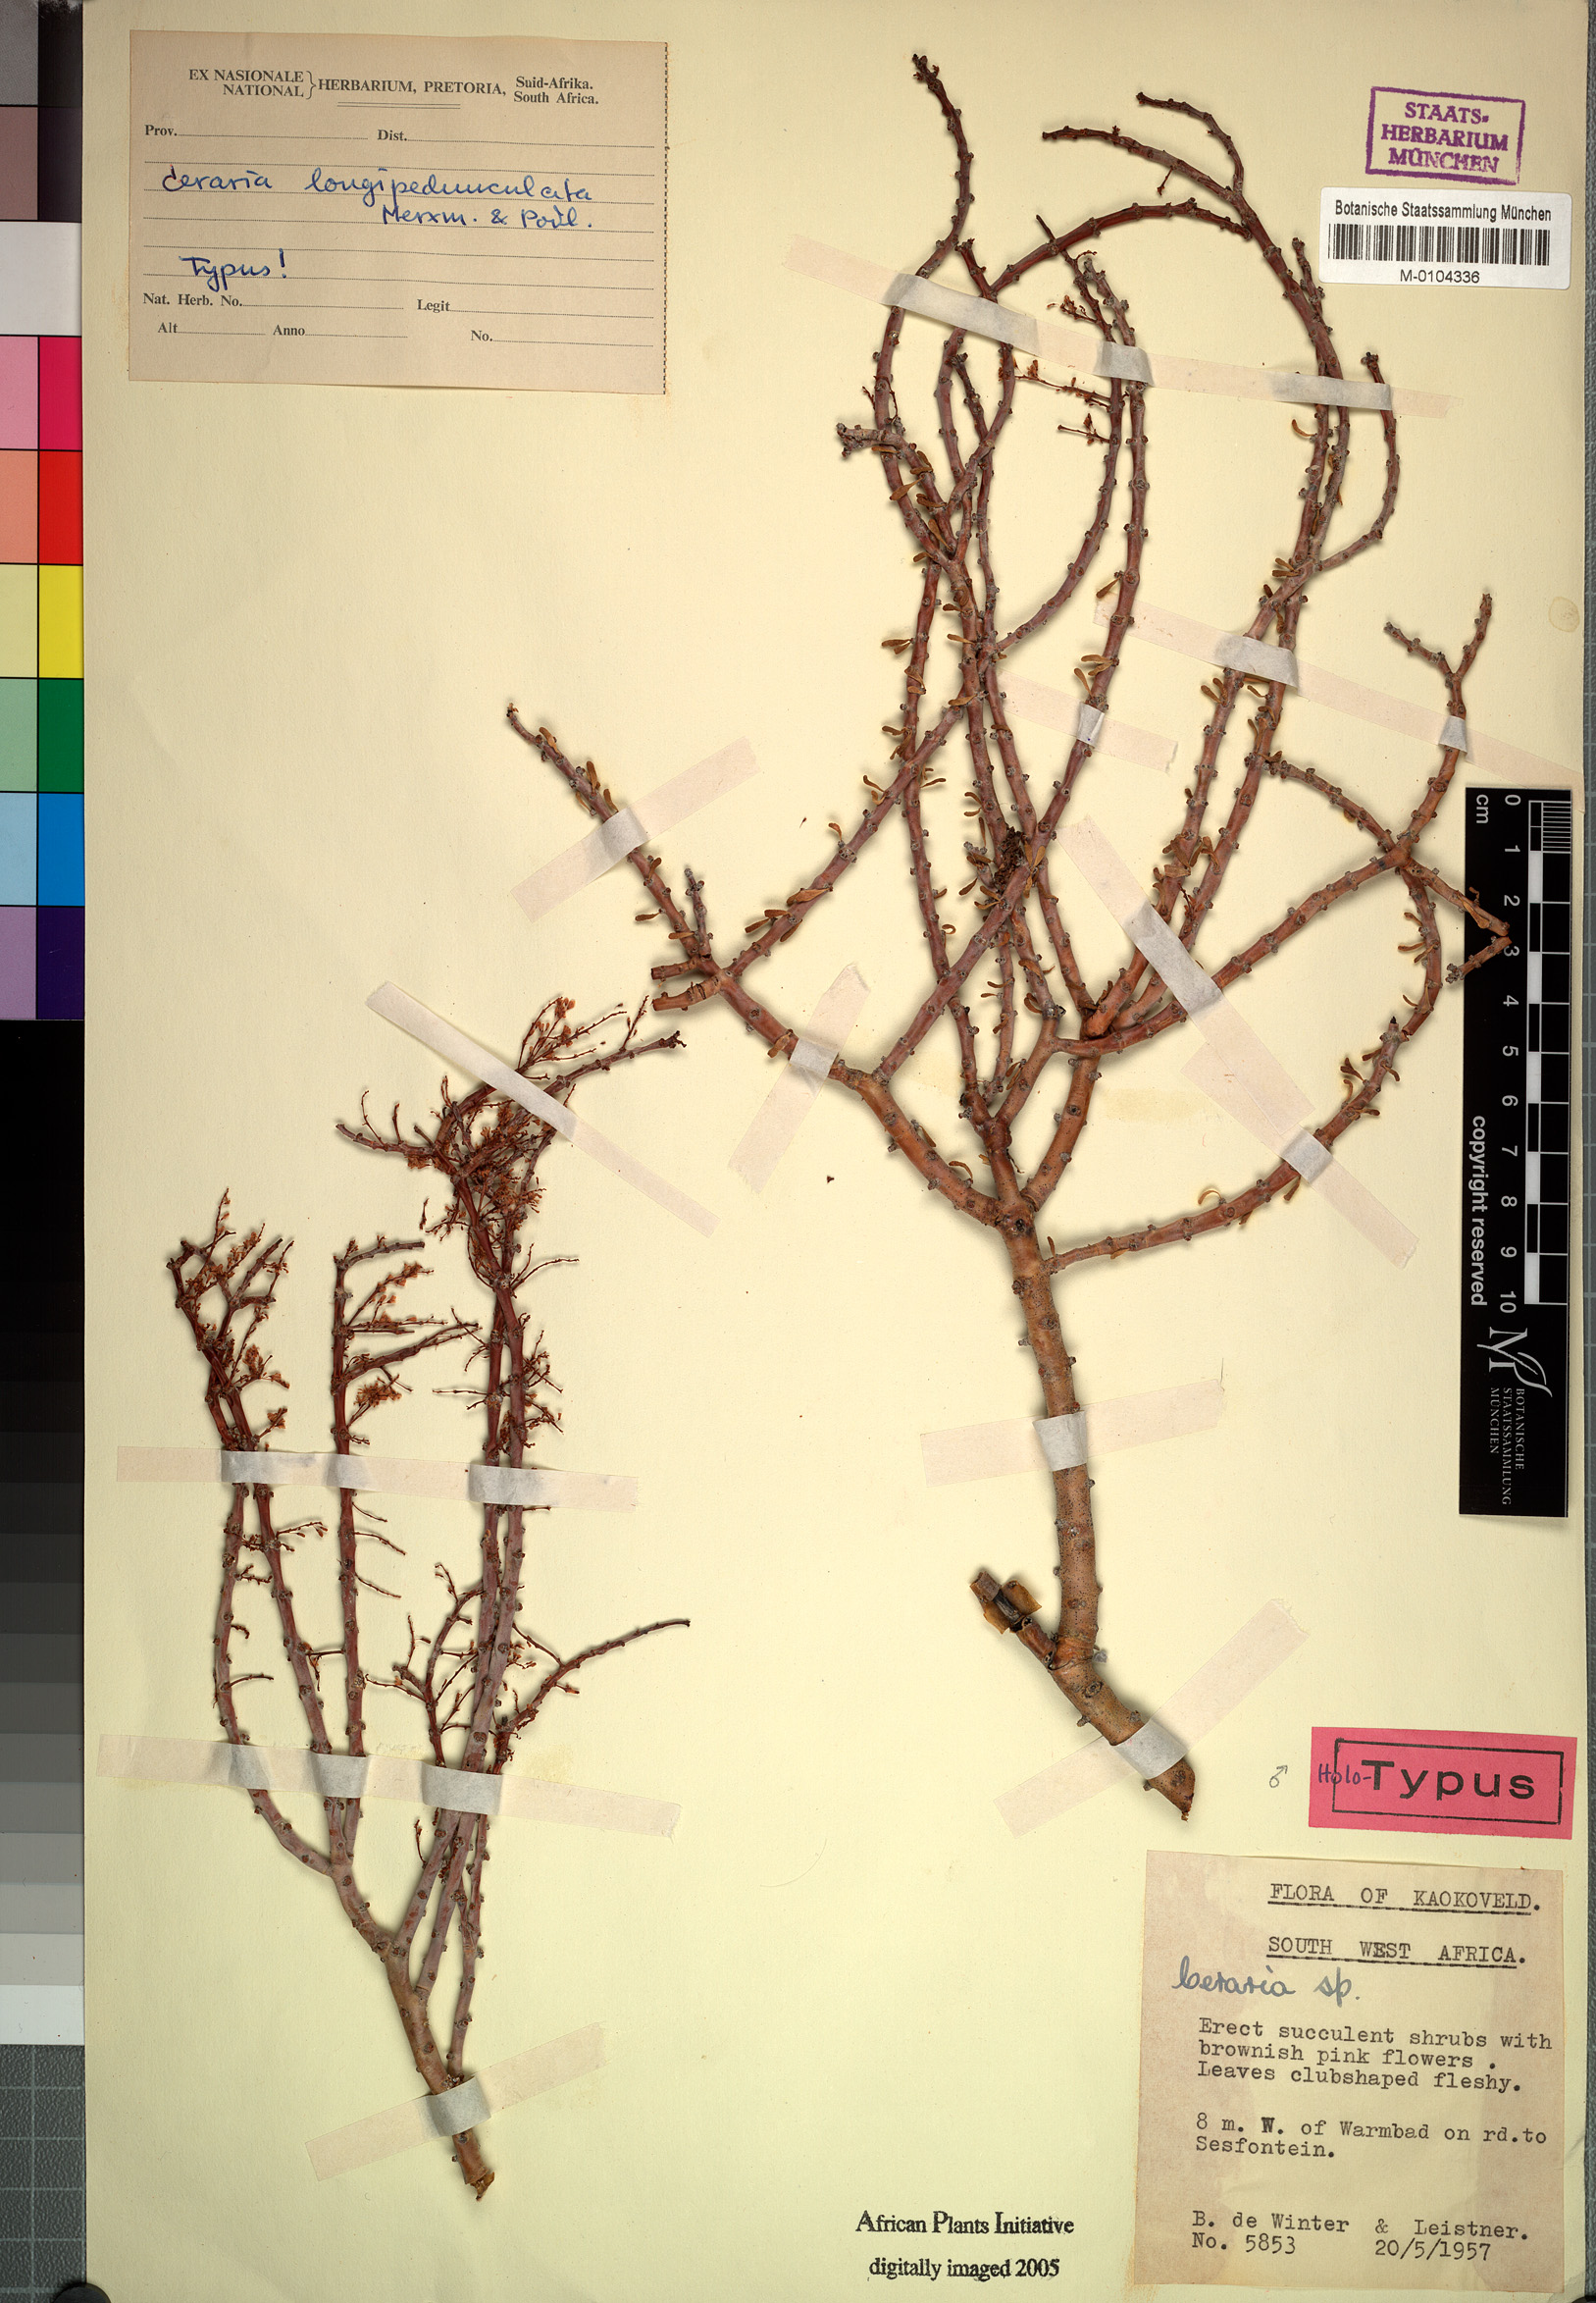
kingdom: Plantae
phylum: Tracheophyta
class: Magnoliopsida
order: Caryophyllales
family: Didiereaceae
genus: Portulacaria
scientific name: Portulacaria longipedunculata
